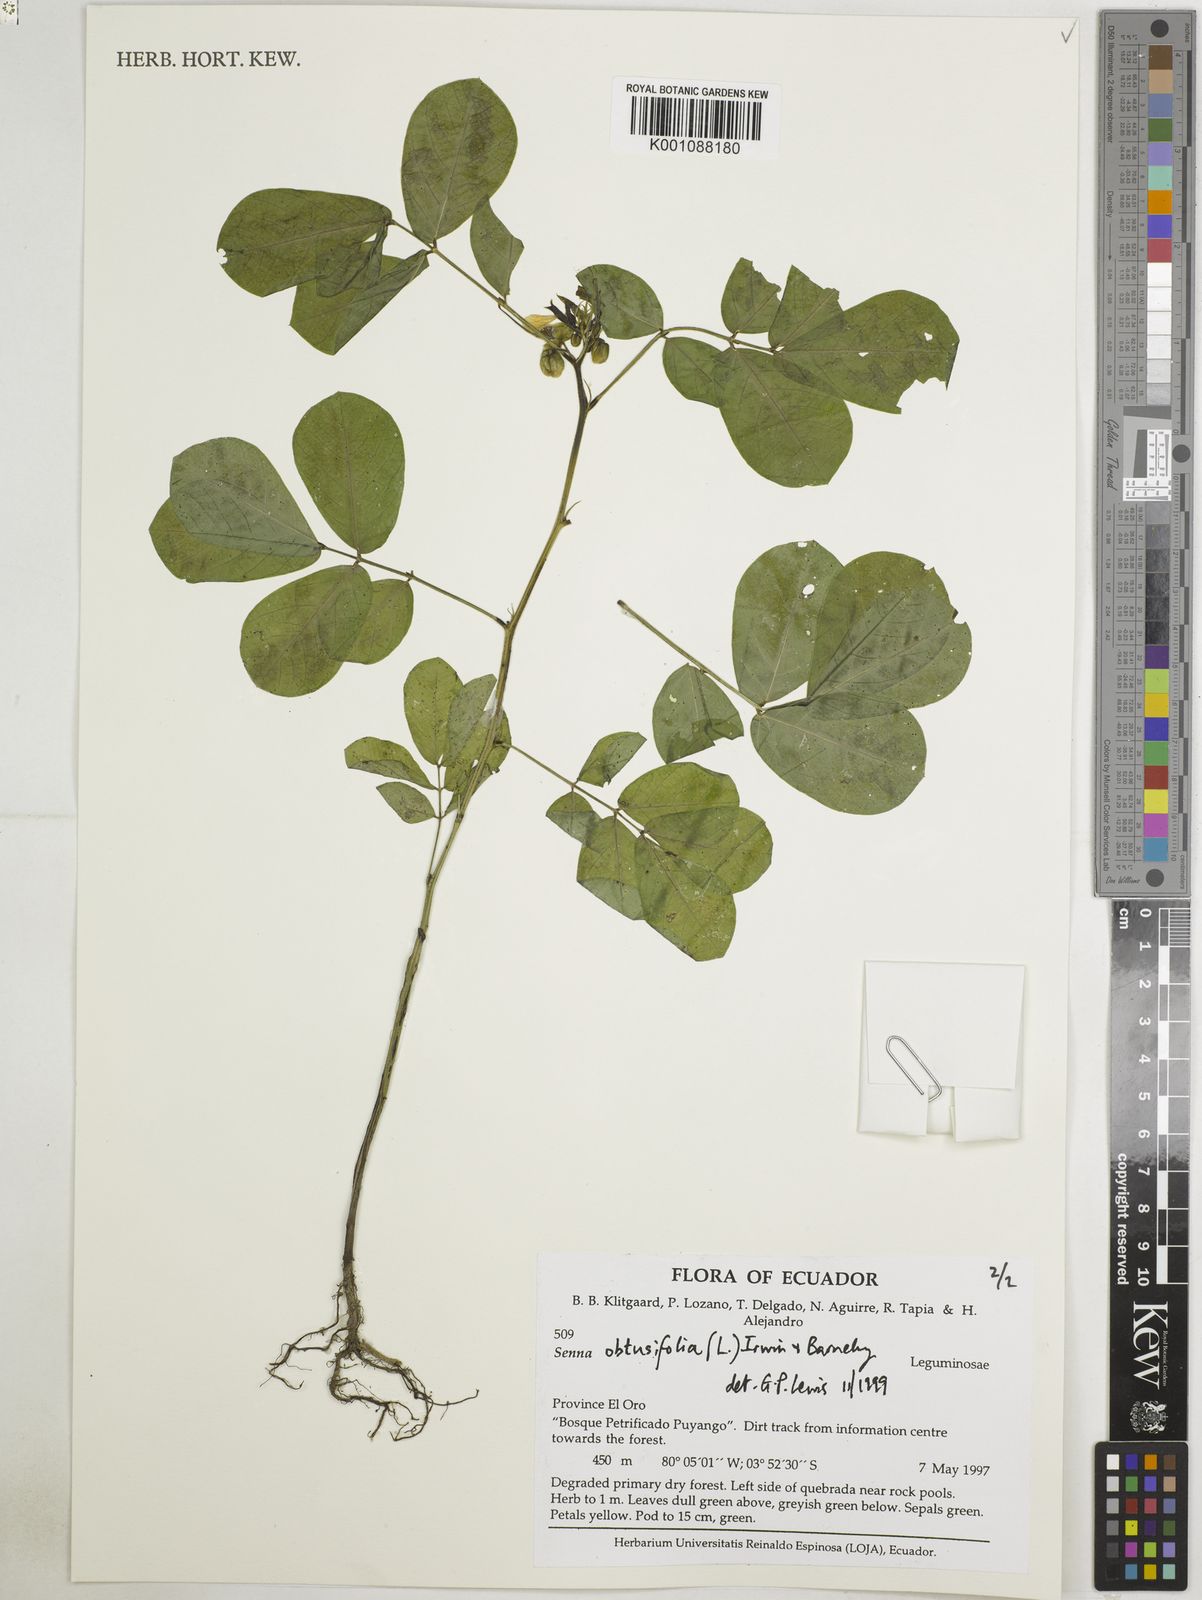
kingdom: Plantae
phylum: Tracheophyta
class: Magnoliopsida
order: Fabales
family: Fabaceae
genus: Senna
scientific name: Senna obtusifolia
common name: Java-bean
